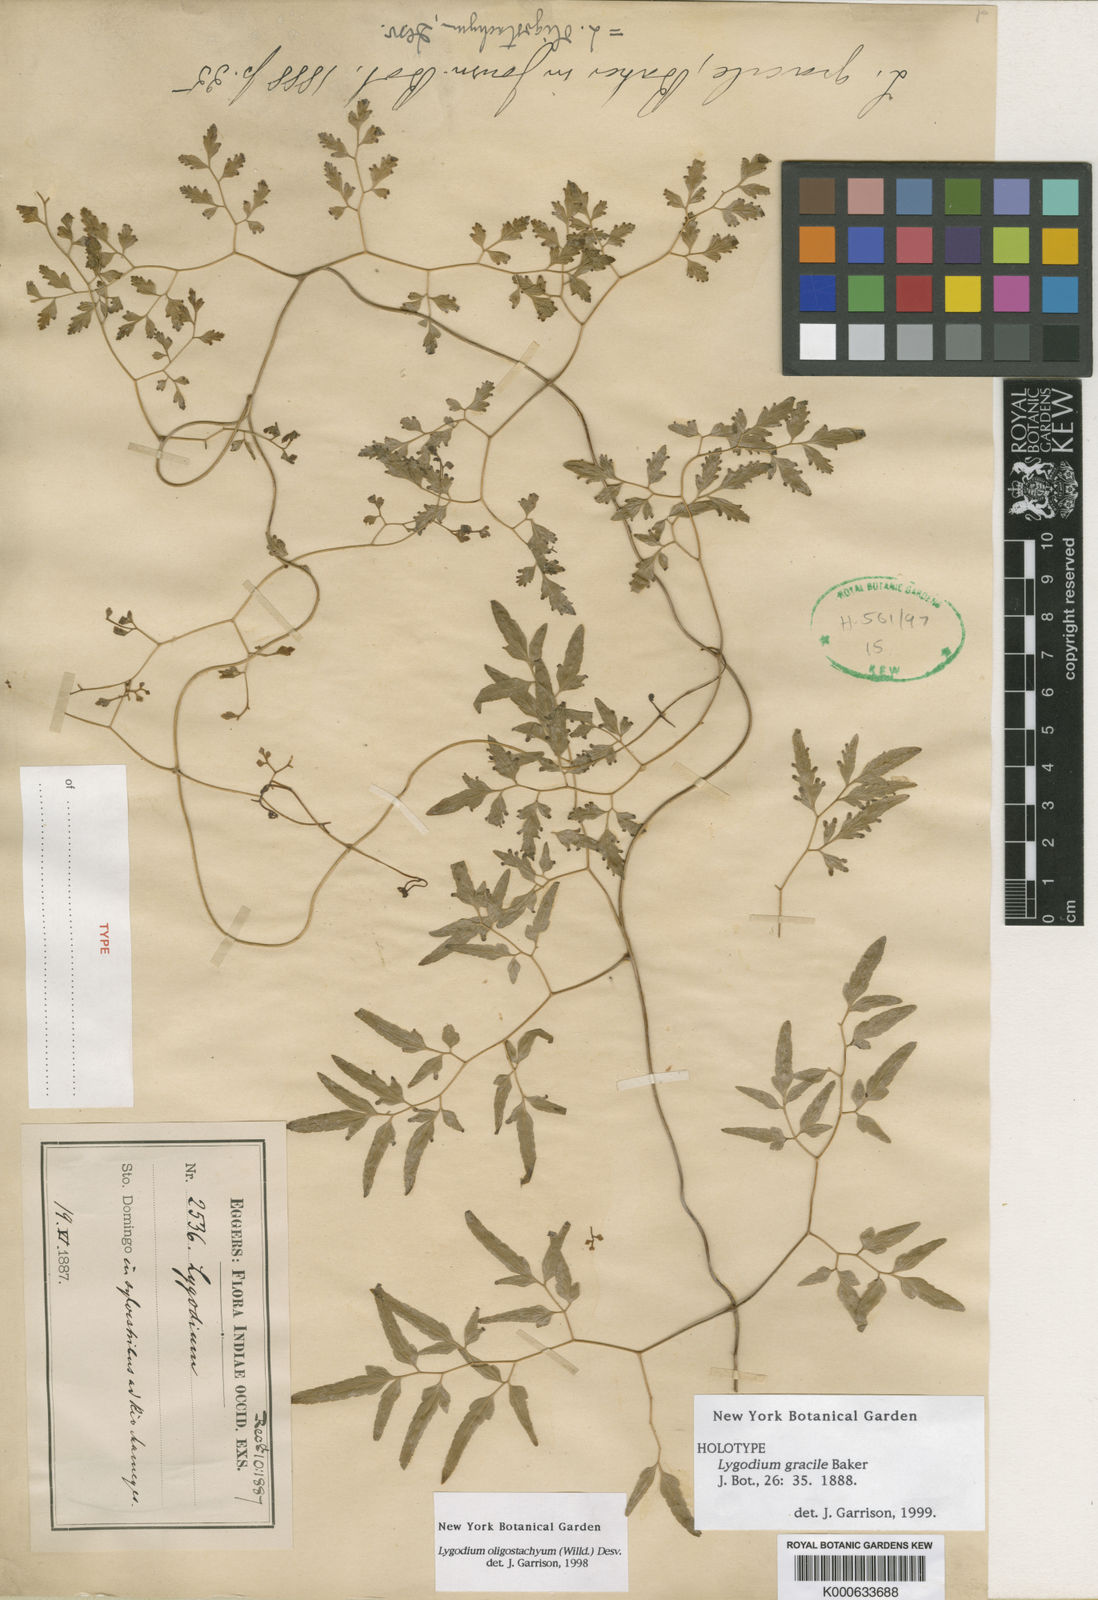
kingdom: Plantae
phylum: Tracheophyta
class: Polypodiopsida
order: Schizaeales
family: Lygodiaceae
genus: Lygodium
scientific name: Lygodium oligostachyum
